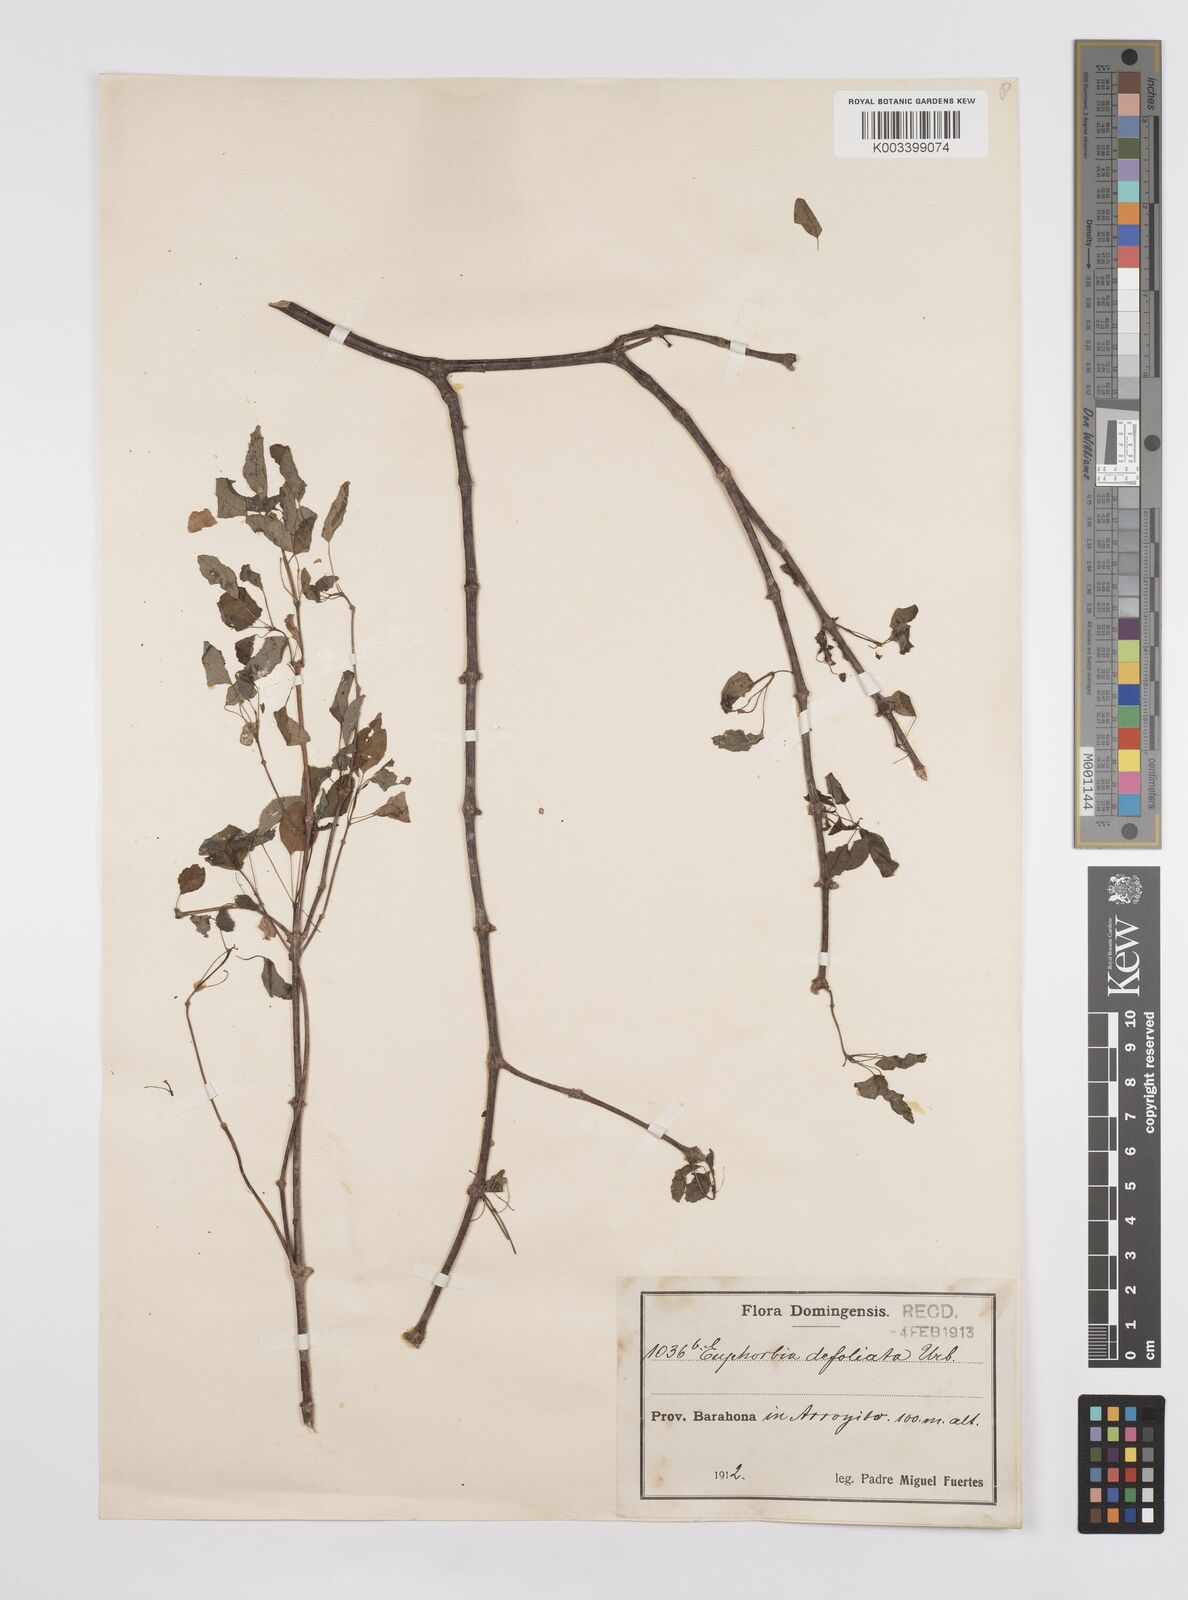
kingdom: Plantae
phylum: Tracheophyta
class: Magnoliopsida
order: Malpighiales
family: Euphorbiaceae
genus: Euphorbia
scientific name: Euphorbia defoliata
